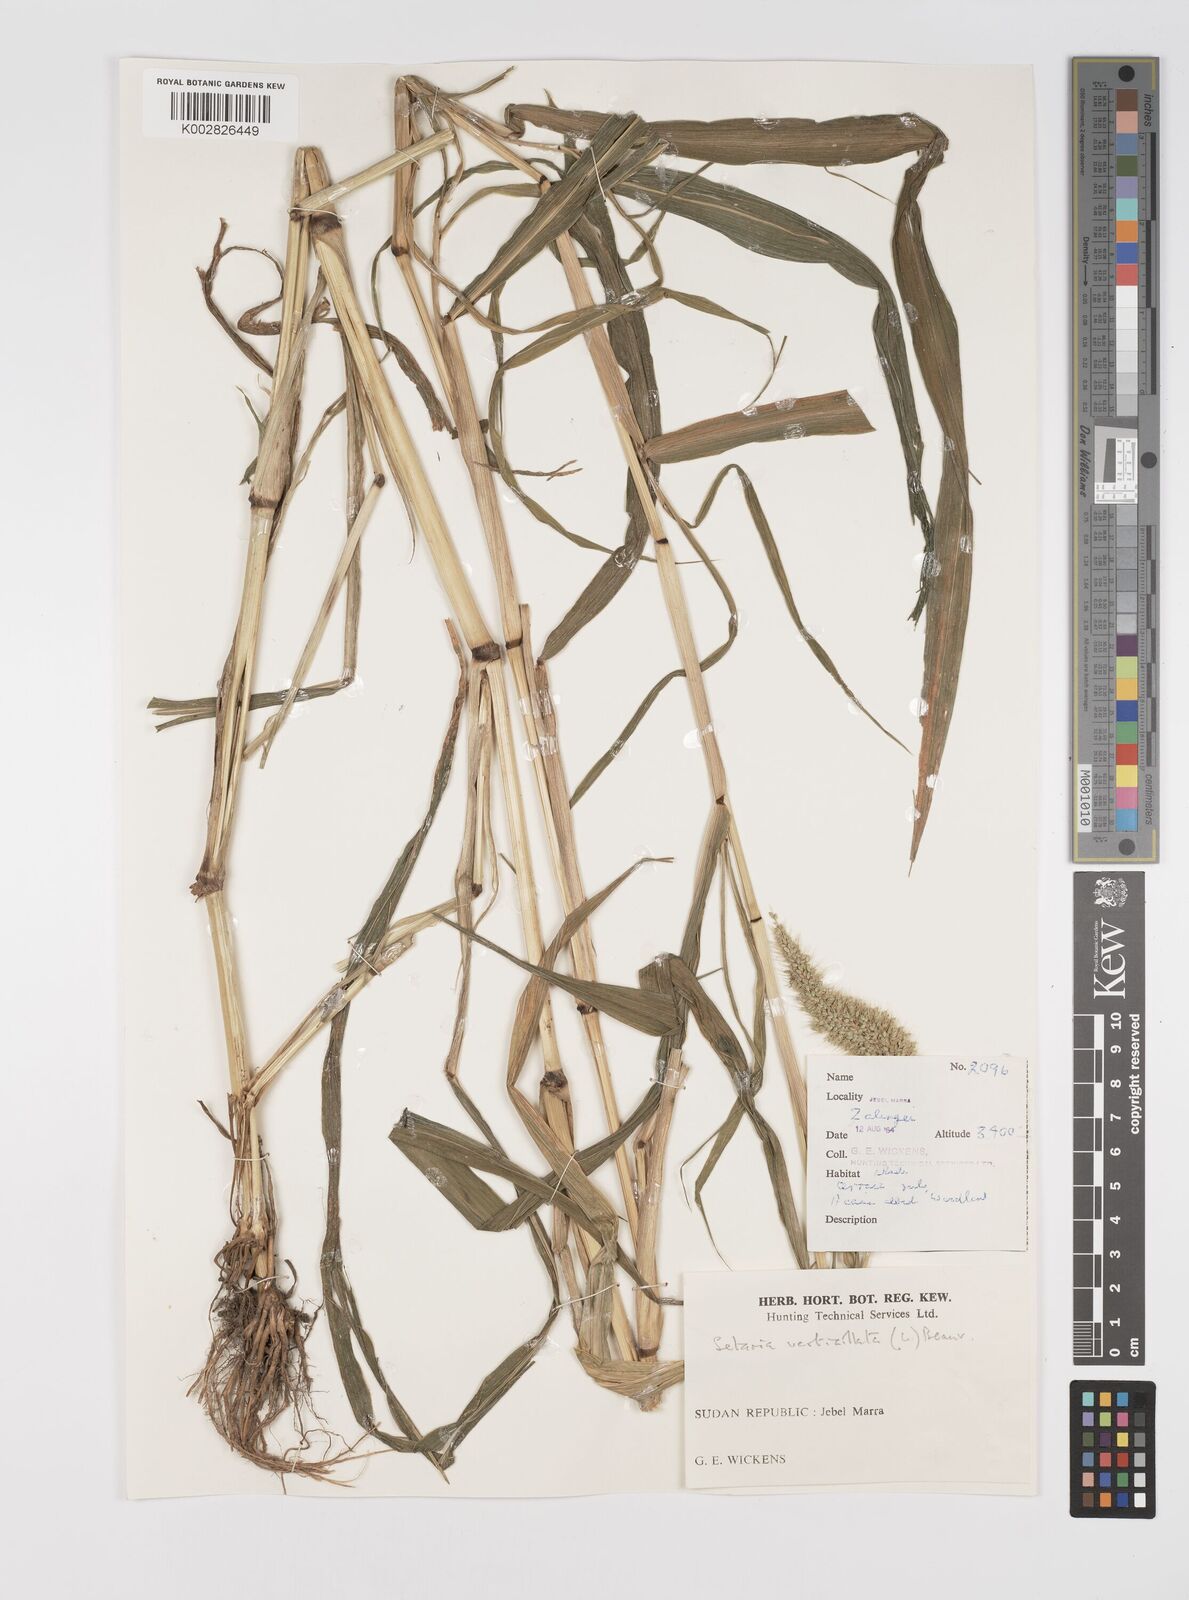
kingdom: Plantae
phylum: Tracheophyta
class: Liliopsida
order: Poales
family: Poaceae
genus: Setaria
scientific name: Setaria verticillata
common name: Hooked bristlegrass
